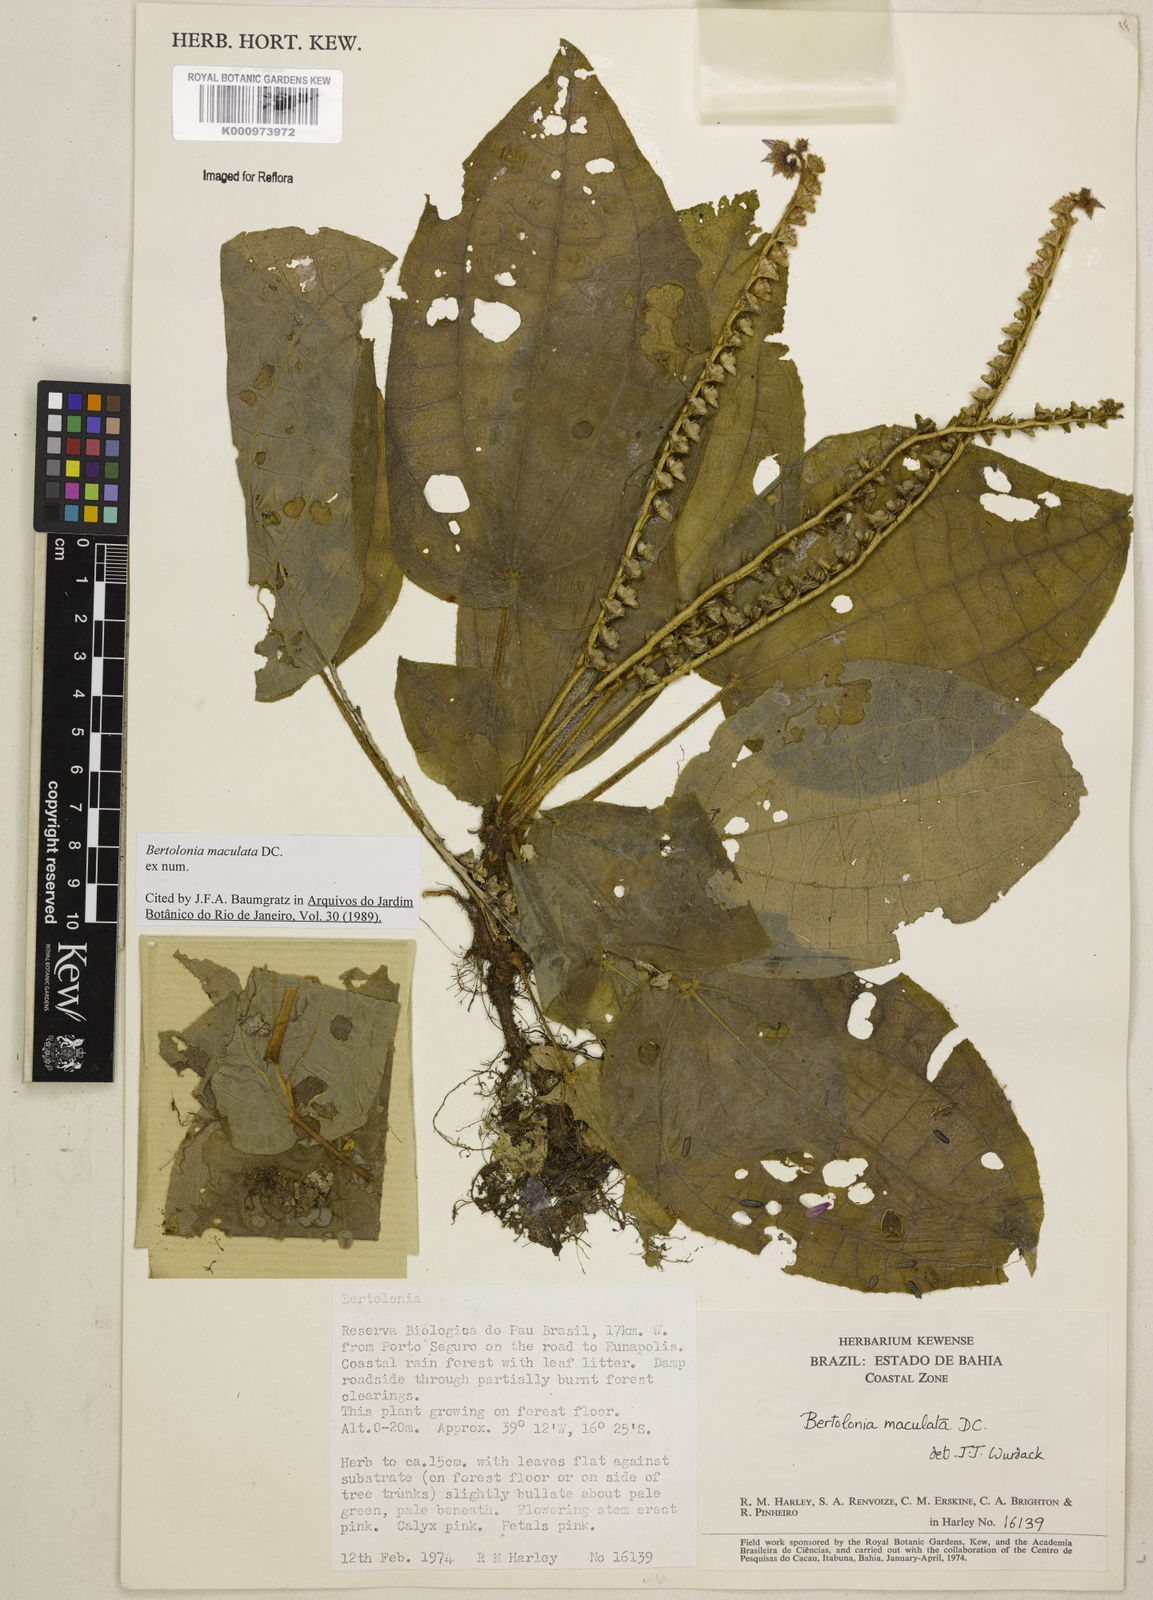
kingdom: Plantae
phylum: Tracheophyta
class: Magnoliopsida
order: Myrtales
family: Melastomataceae
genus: Bertolonia
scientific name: Bertolonia maculata
